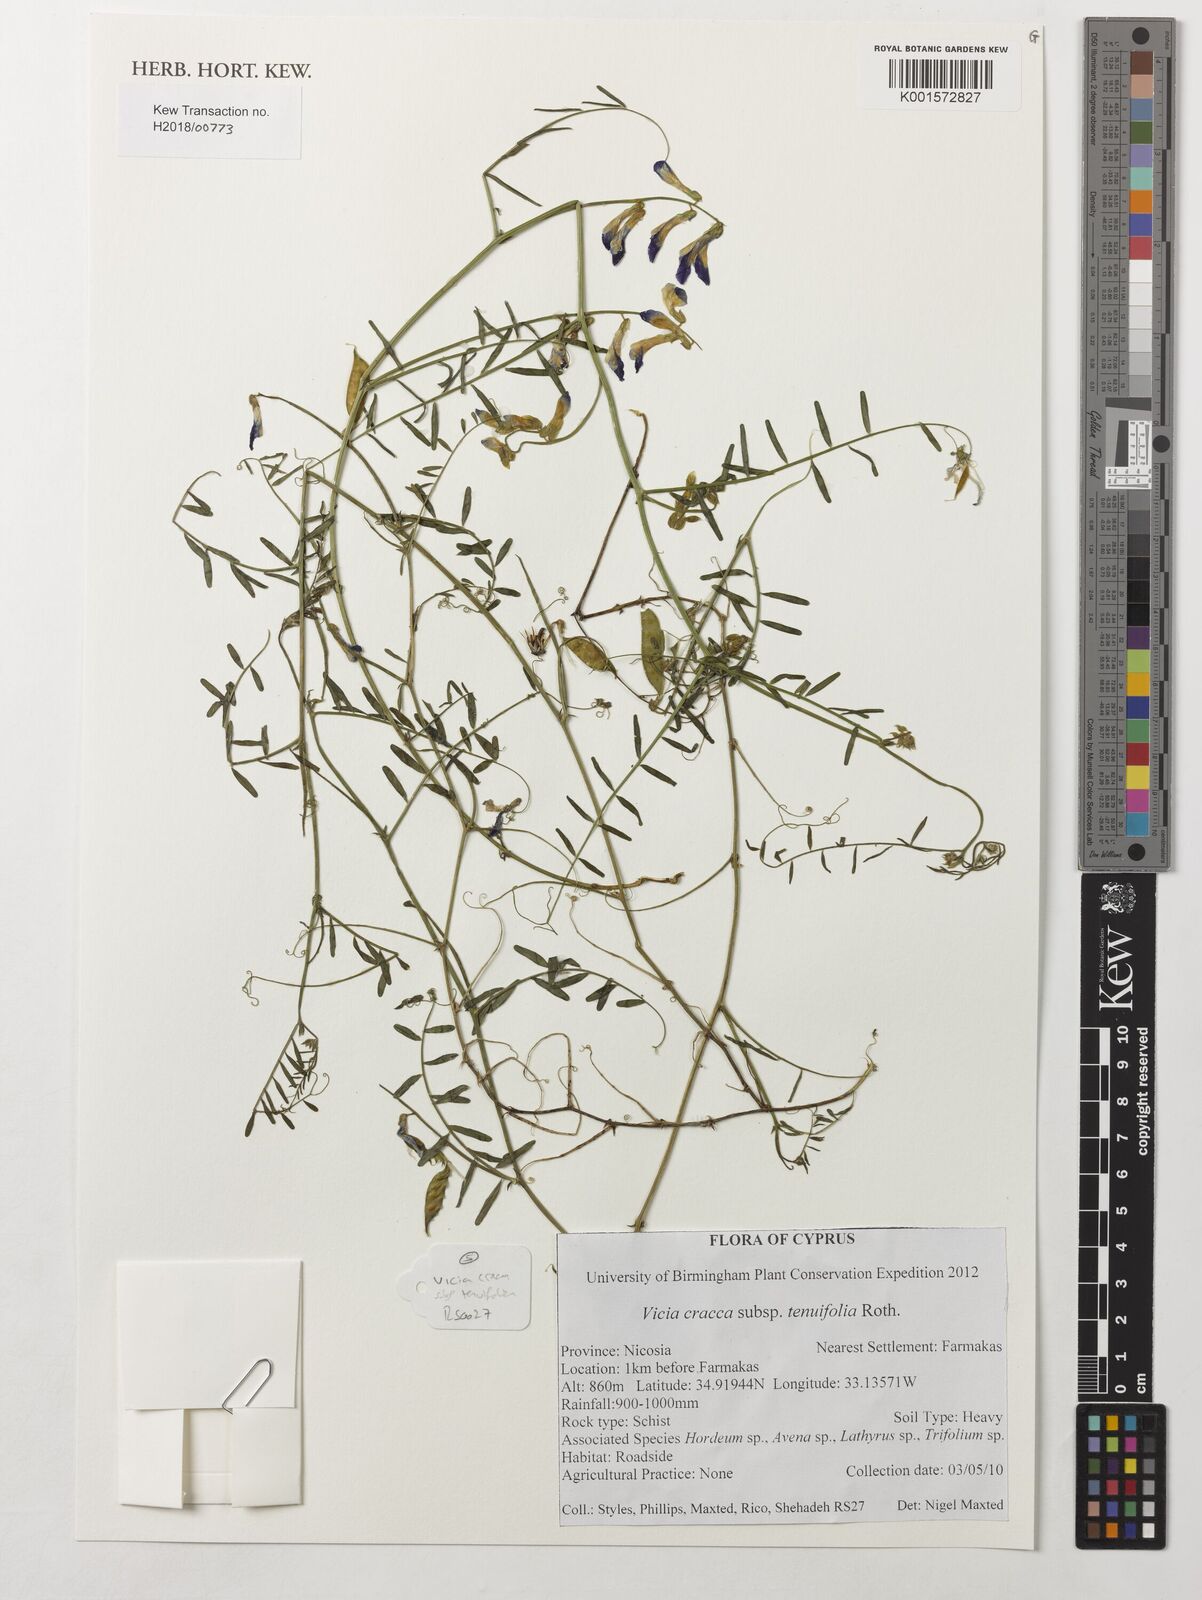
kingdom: Plantae
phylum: Tracheophyta
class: Magnoliopsida
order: Fabales
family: Fabaceae
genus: Vicia
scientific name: Vicia tenuifolia
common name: Fine-leaved vetch
